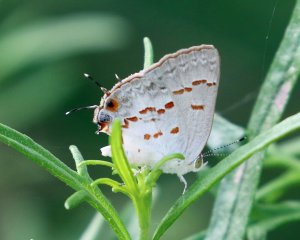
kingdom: Animalia
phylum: Arthropoda
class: Insecta
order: Lepidoptera
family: Lycaenidae
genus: Ministrymon
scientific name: Ministrymon clytie
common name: Clytie Ministreak
